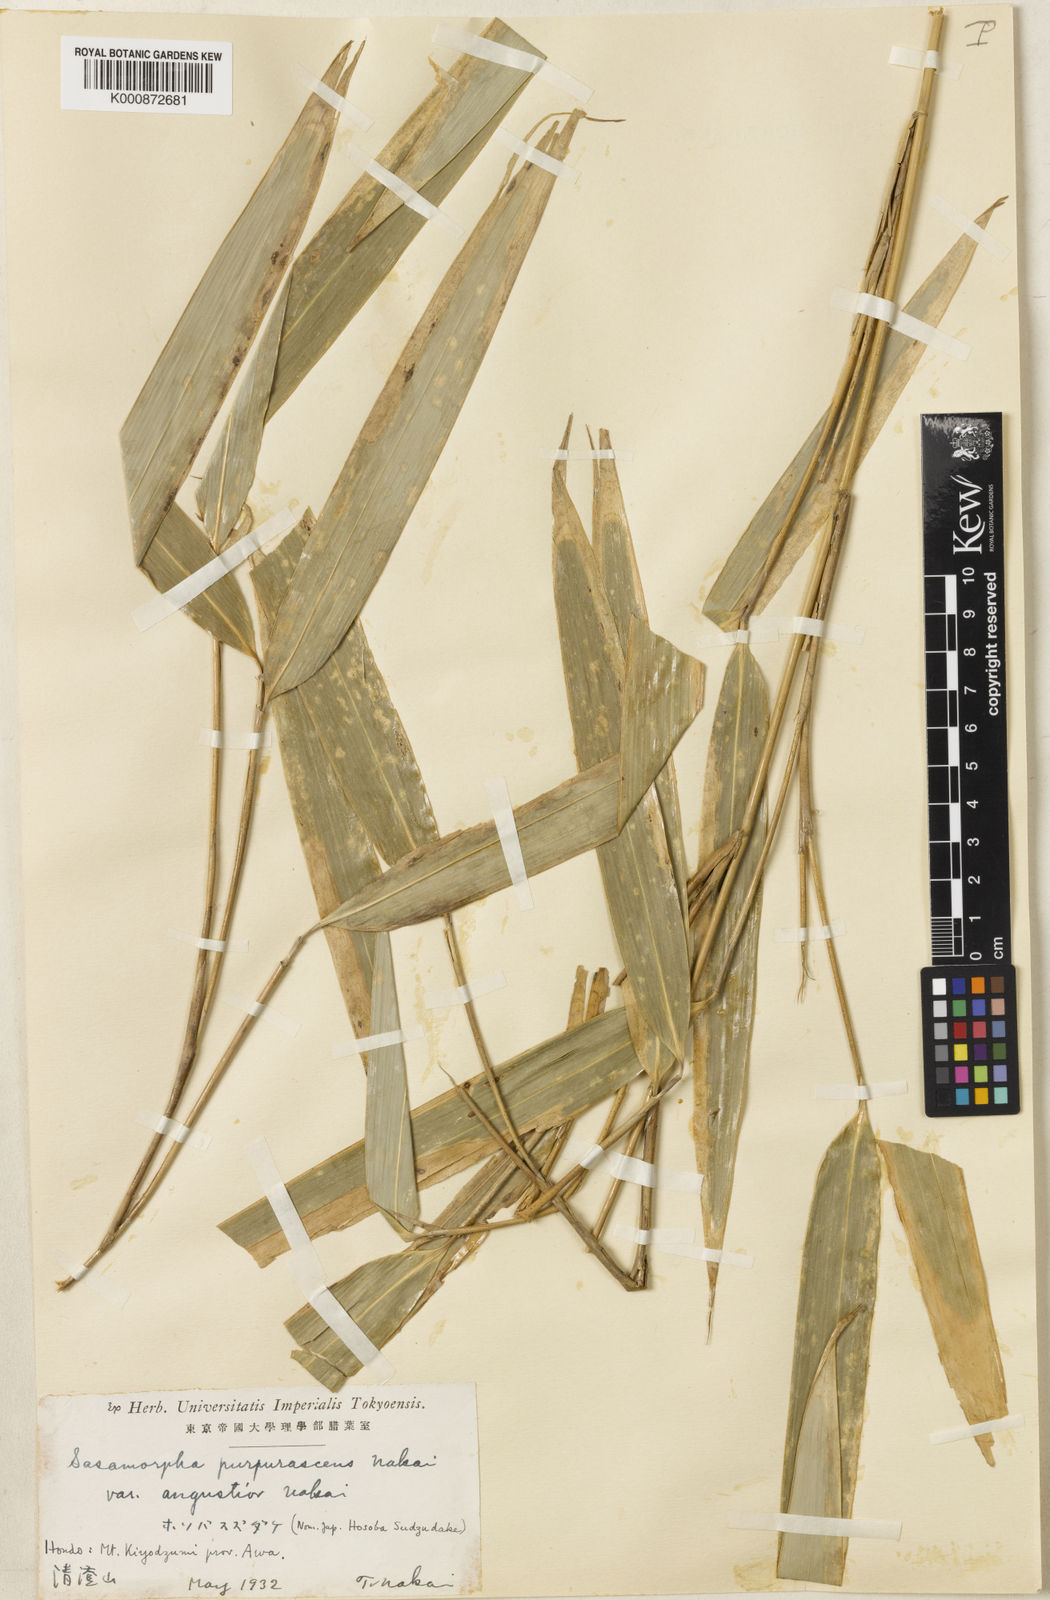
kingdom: Plantae
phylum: Tracheophyta
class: Liliopsida
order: Poales
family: Poaceae
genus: Sasamorpha
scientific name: Sasamorpha borealis
